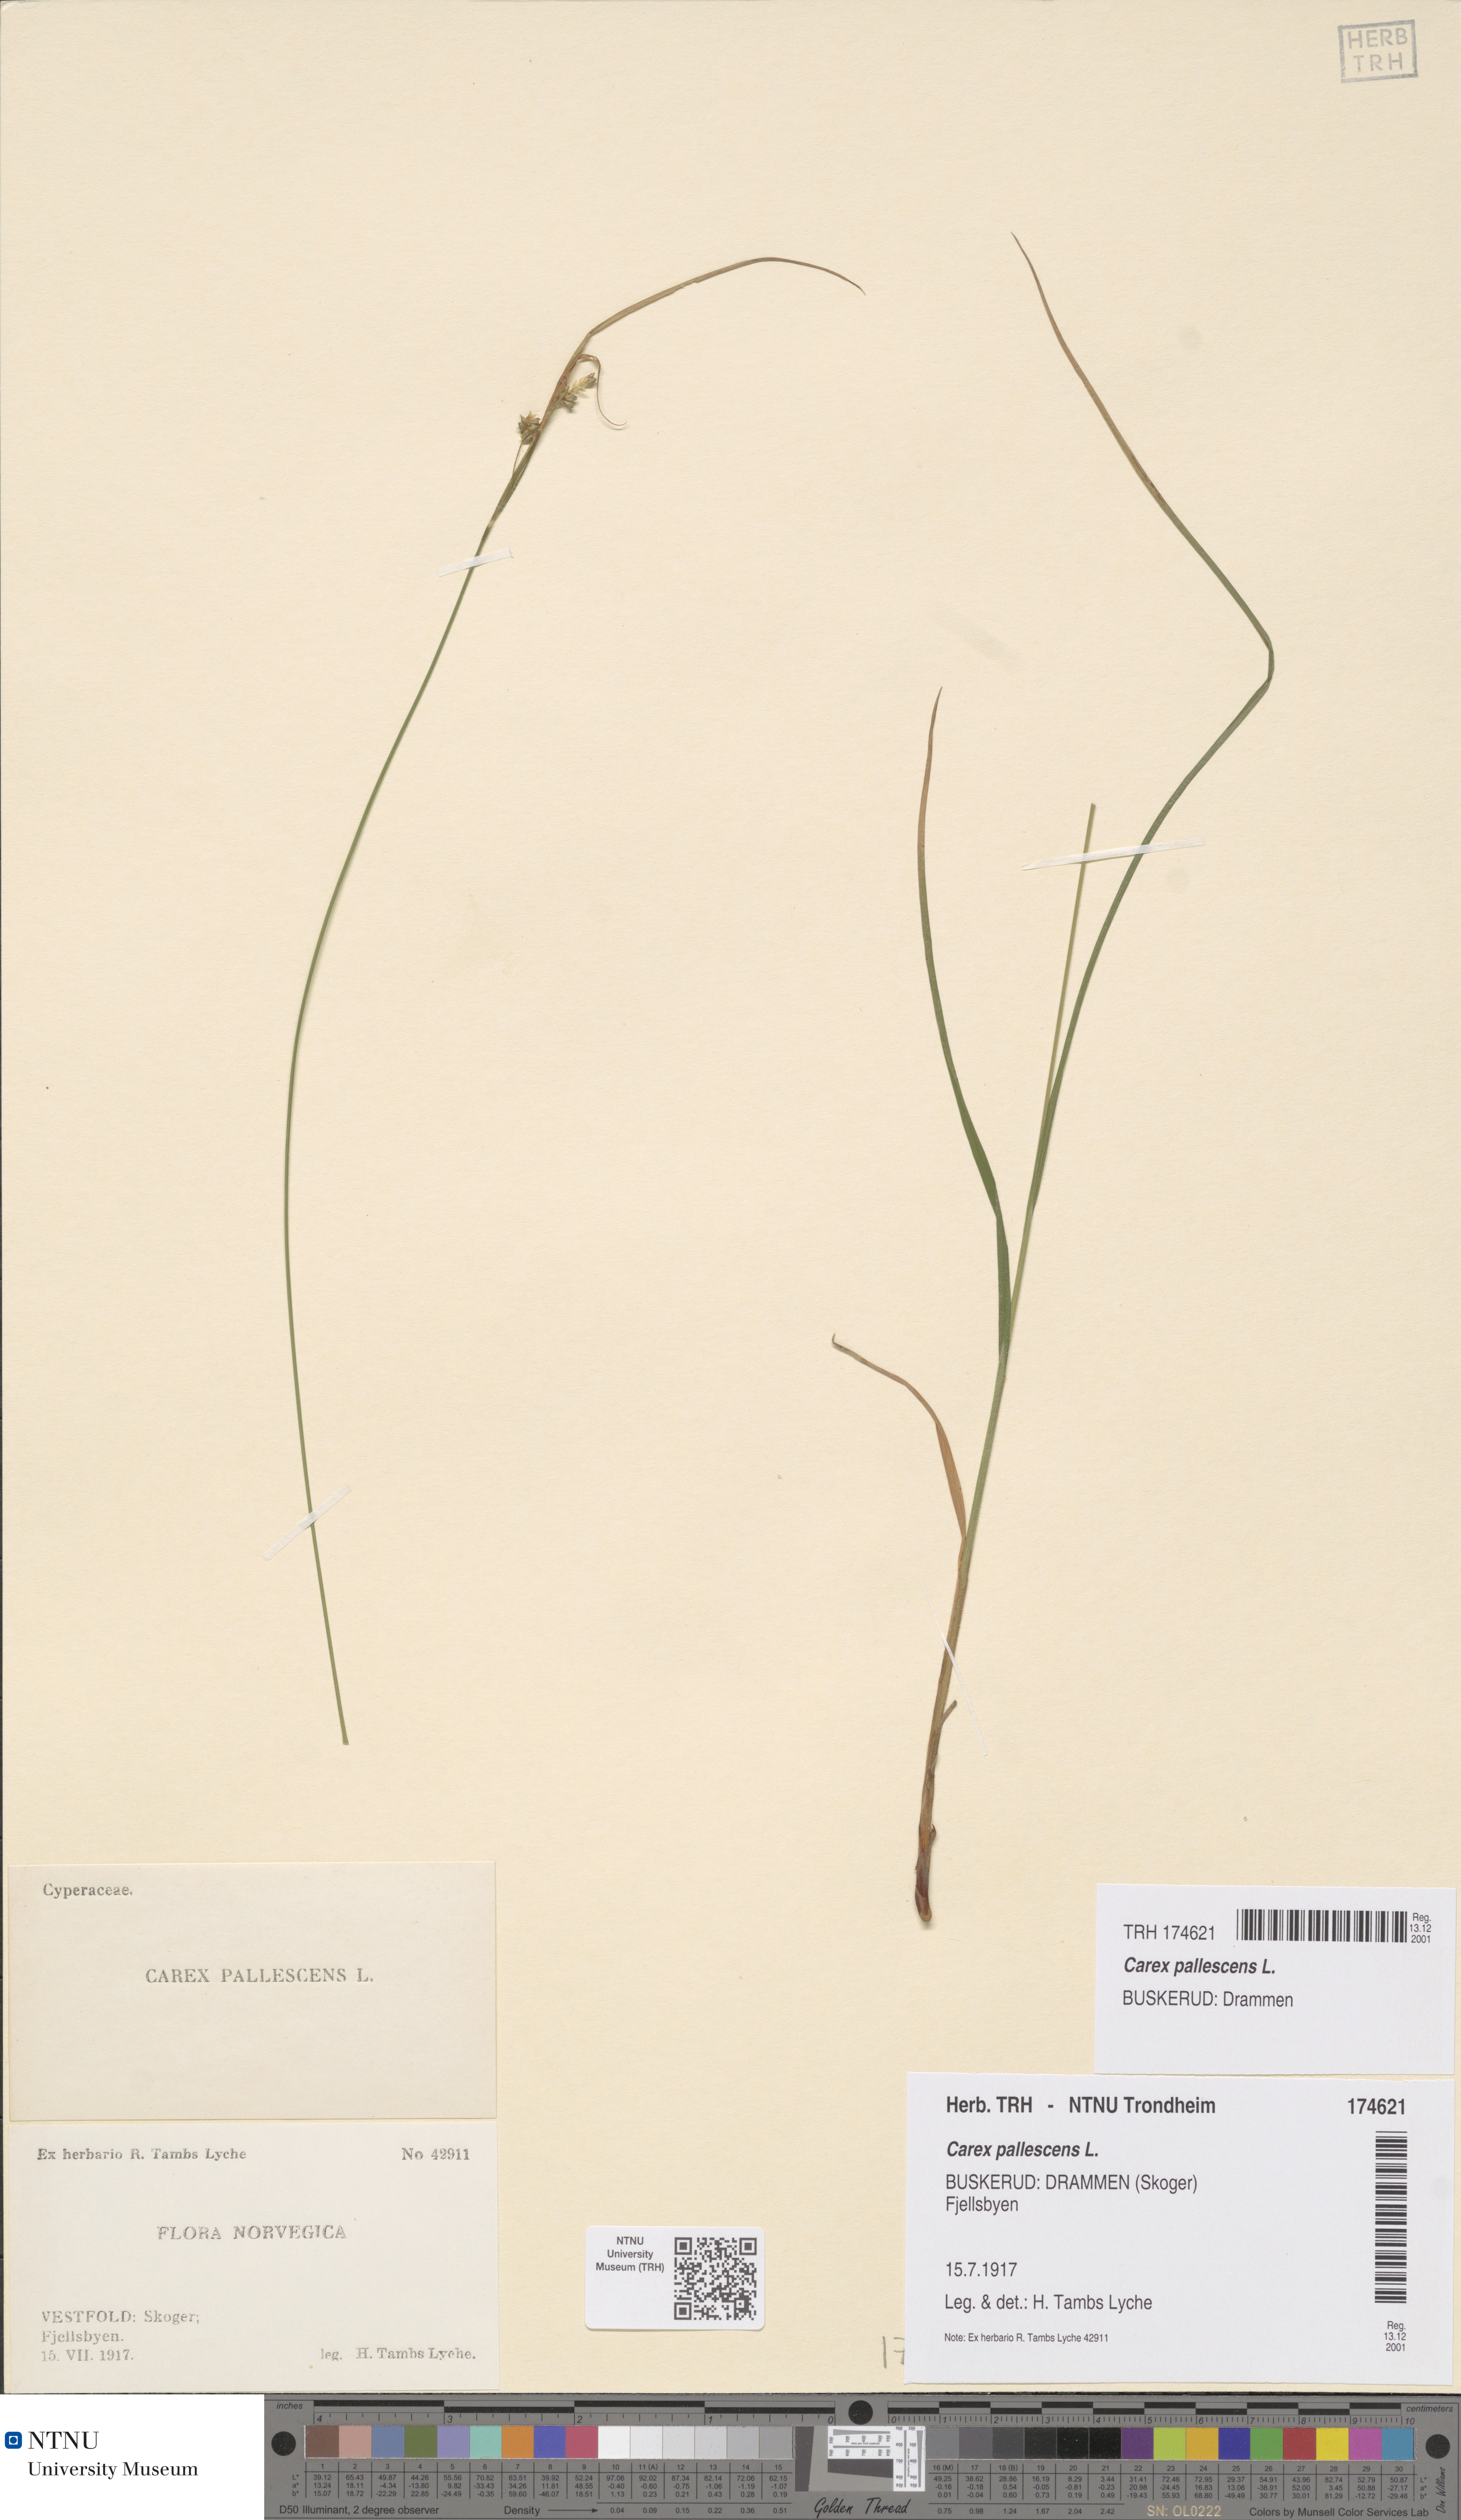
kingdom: Plantae
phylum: Tracheophyta
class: Liliopsida
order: Poales
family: Cyperaceae
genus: Carex
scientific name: Carex pallescens
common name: Pale sedge
